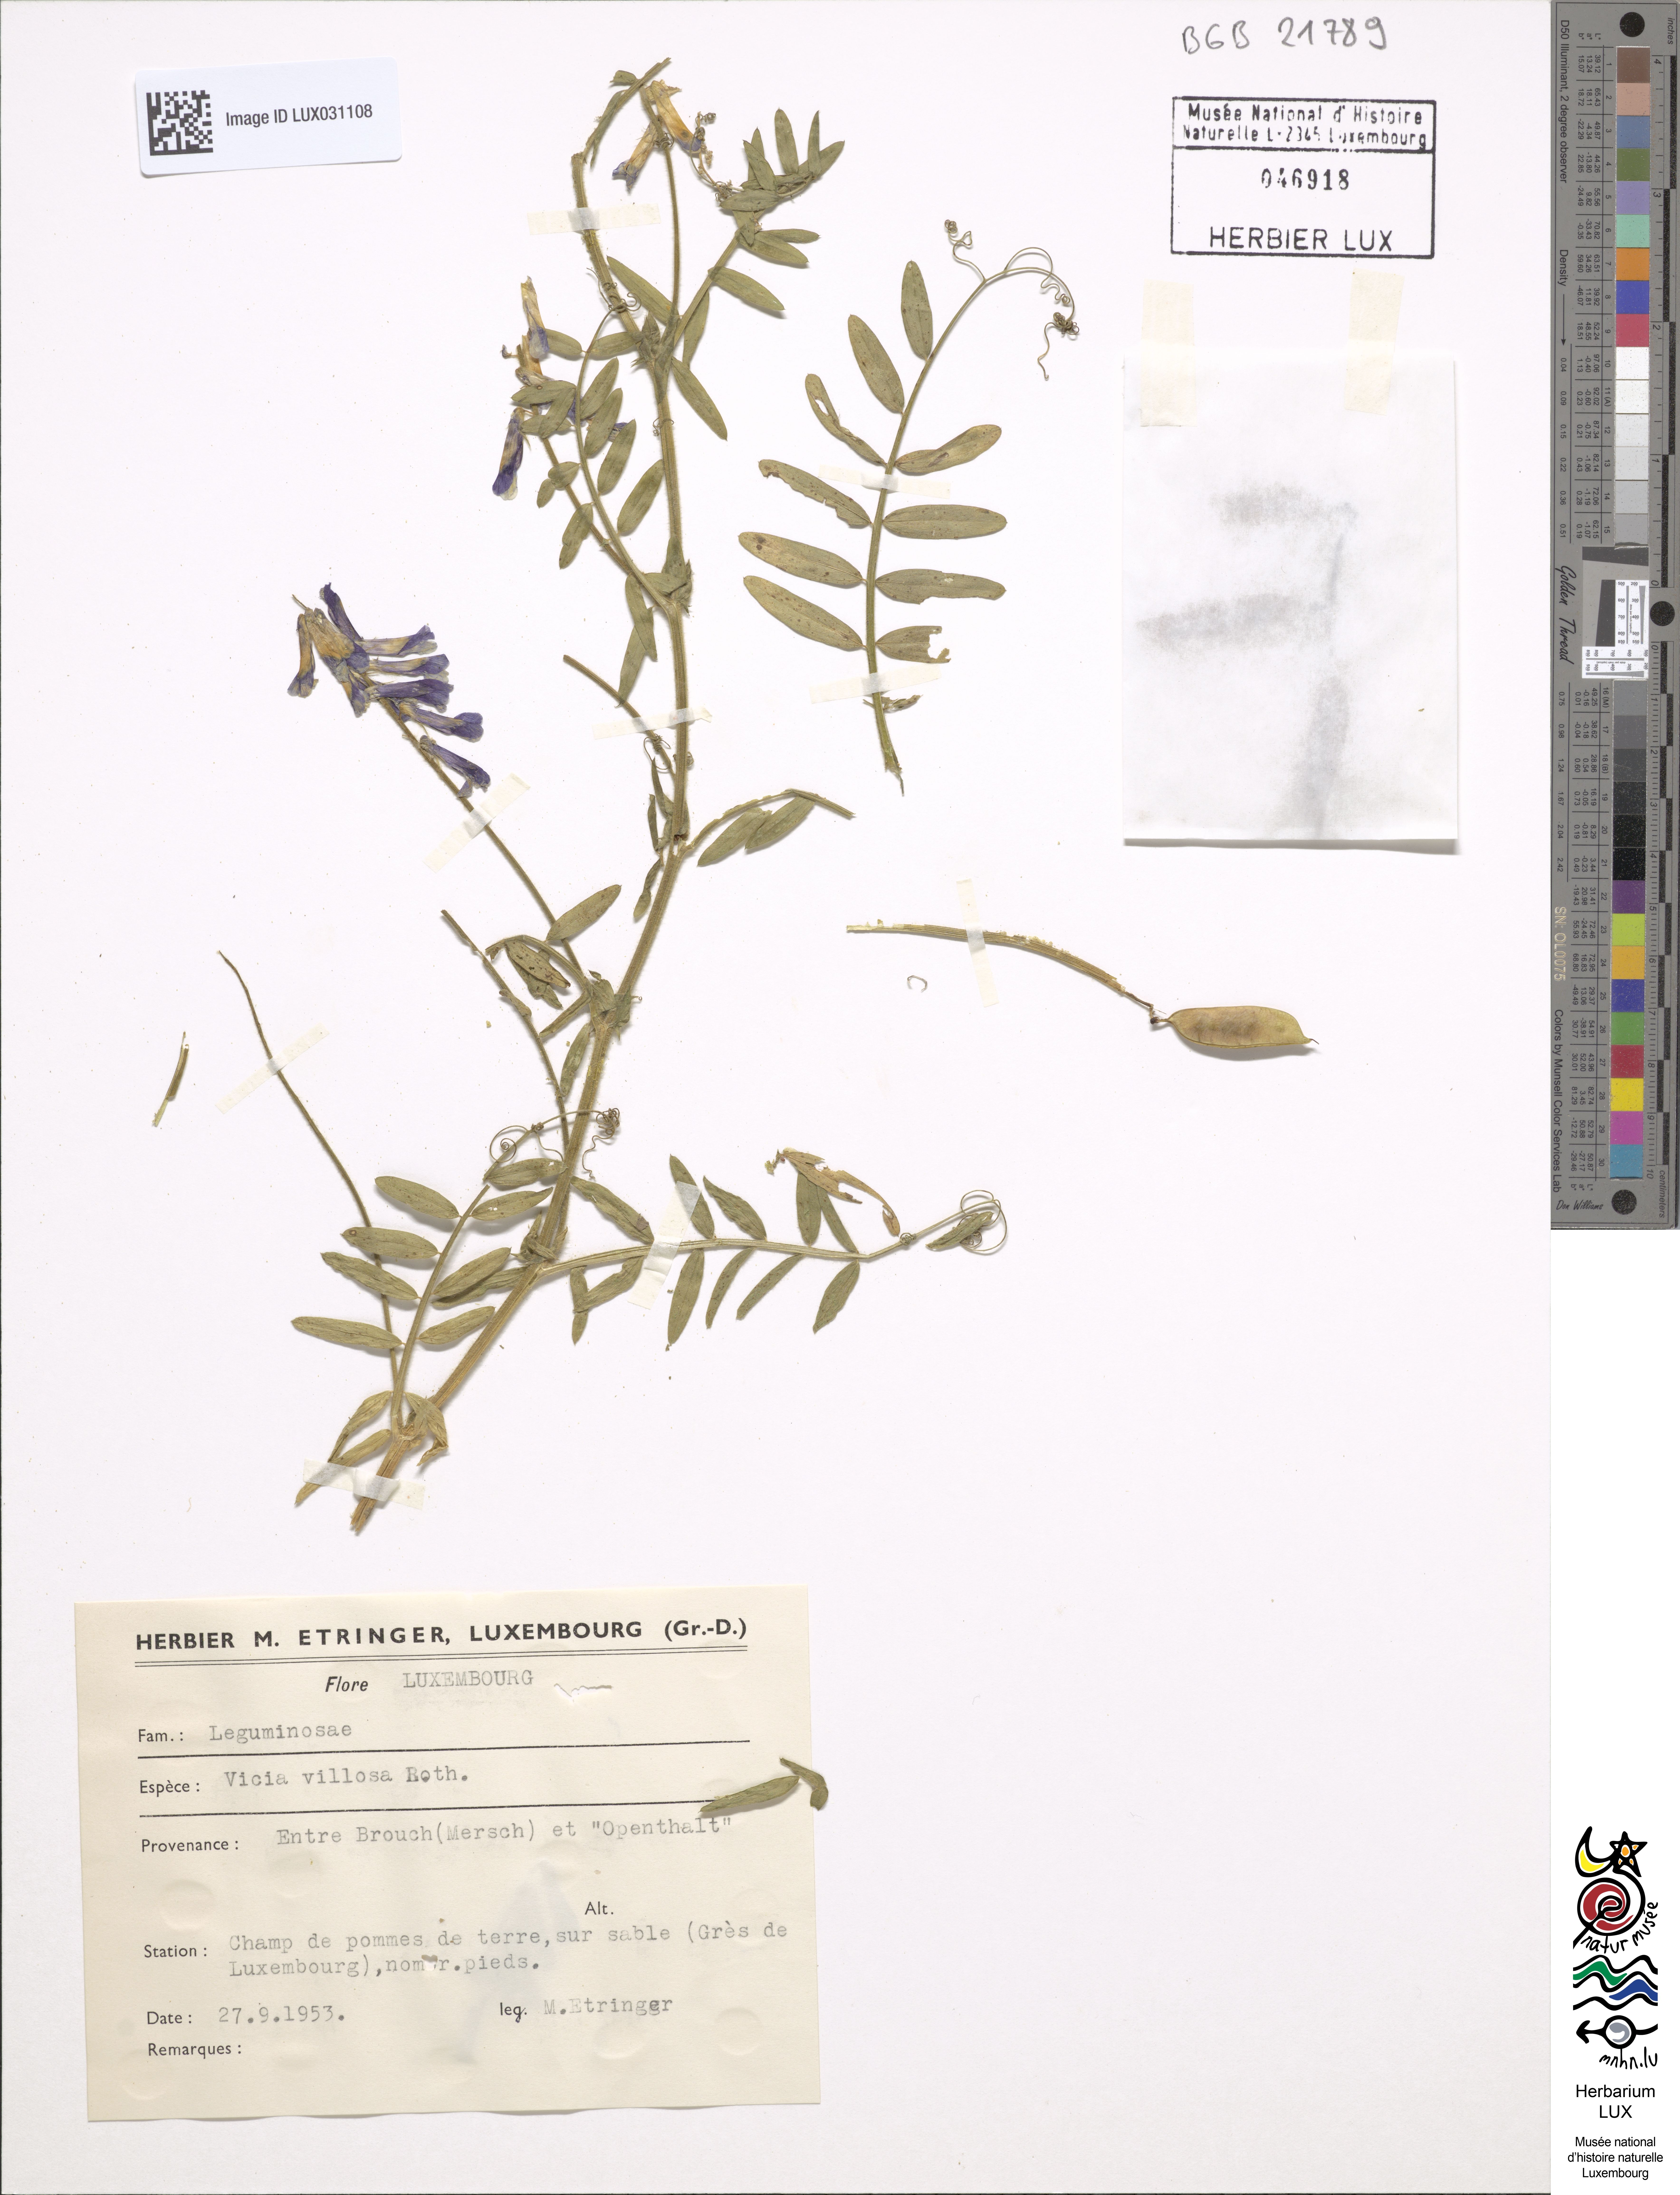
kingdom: Plantae
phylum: Tracheophyta
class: Magnoliopsida
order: Fabales
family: Fabaceae
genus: Vicia
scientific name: Vicia villosa
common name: Fodder vetch
